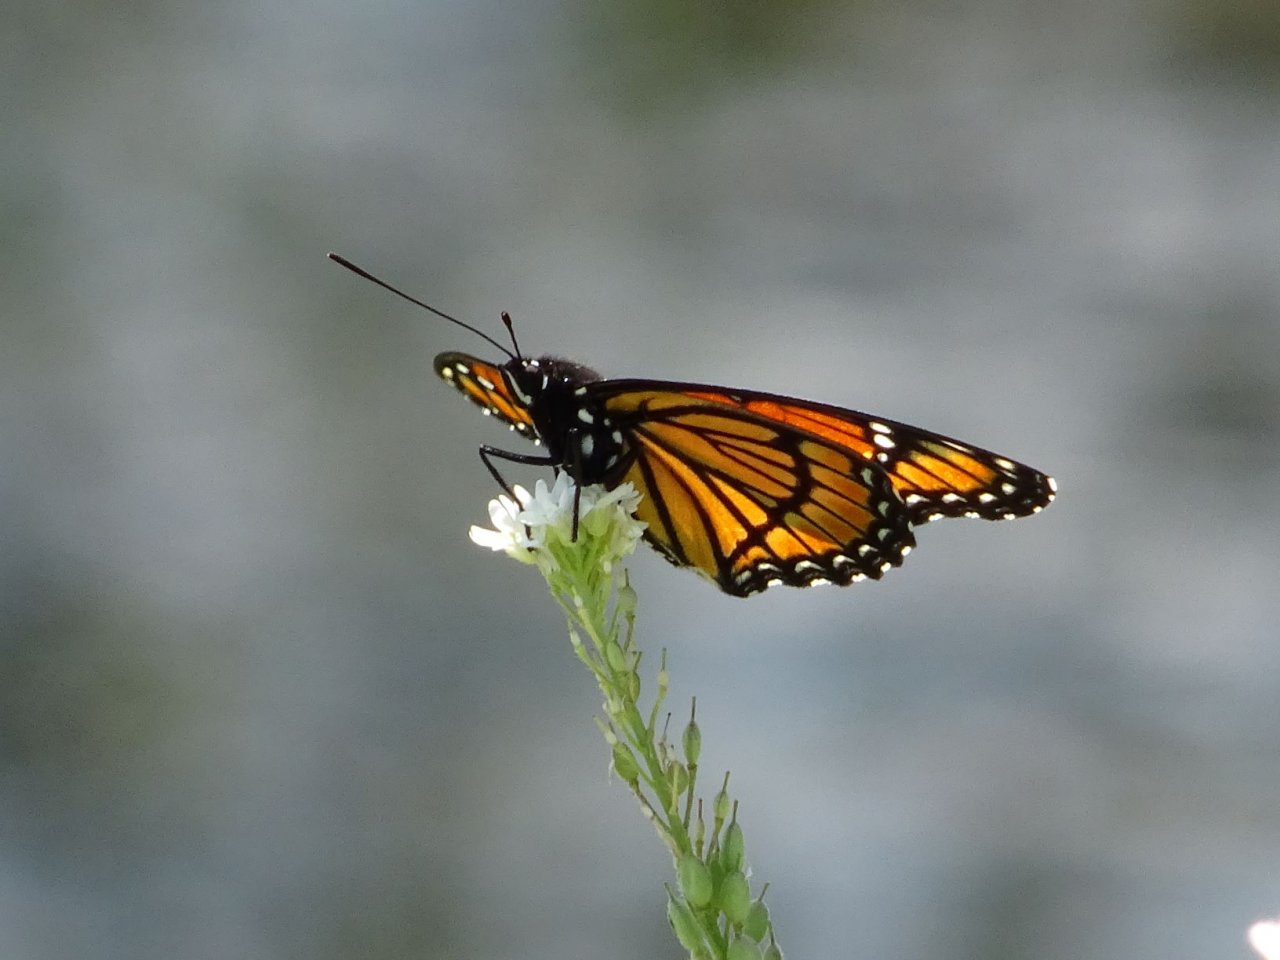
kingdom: Animalia
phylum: Arthropoda
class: Insecta
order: Lepidoptera
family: Nymphalidae
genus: Limenitis
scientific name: Limenitis archippus
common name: Viceroy
